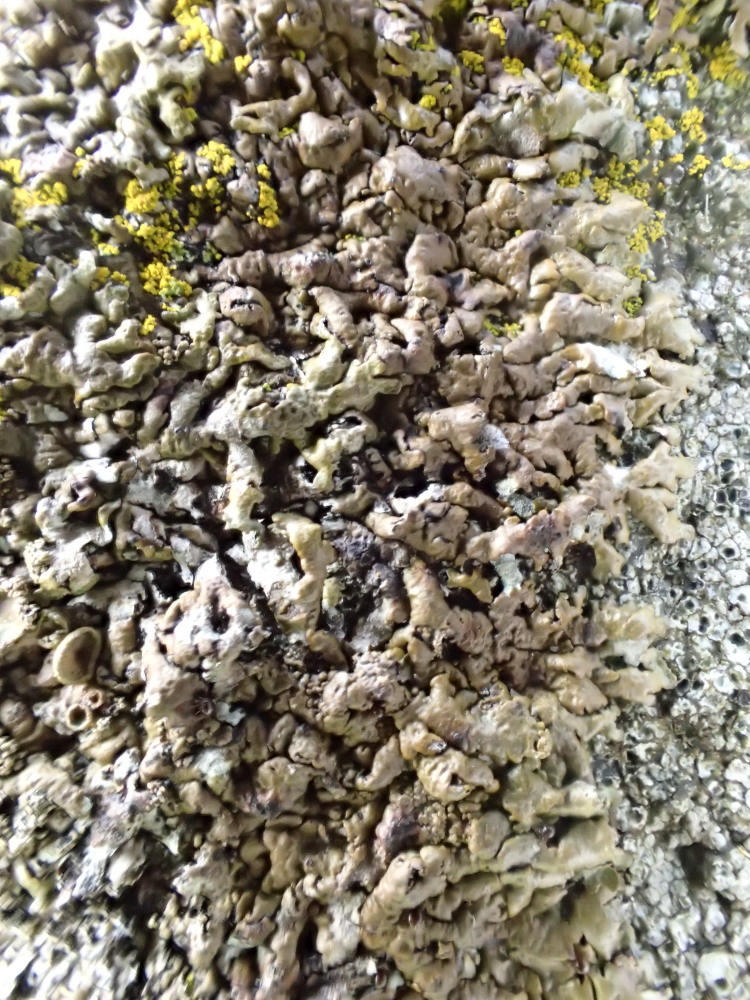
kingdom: Fungi
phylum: Ascomycota
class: Lecanoromycetes
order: Lecanorales
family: Parmeliaceae
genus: Xanthoparmelia
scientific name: Xanthoparmelia loxodes
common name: knudret skållav
